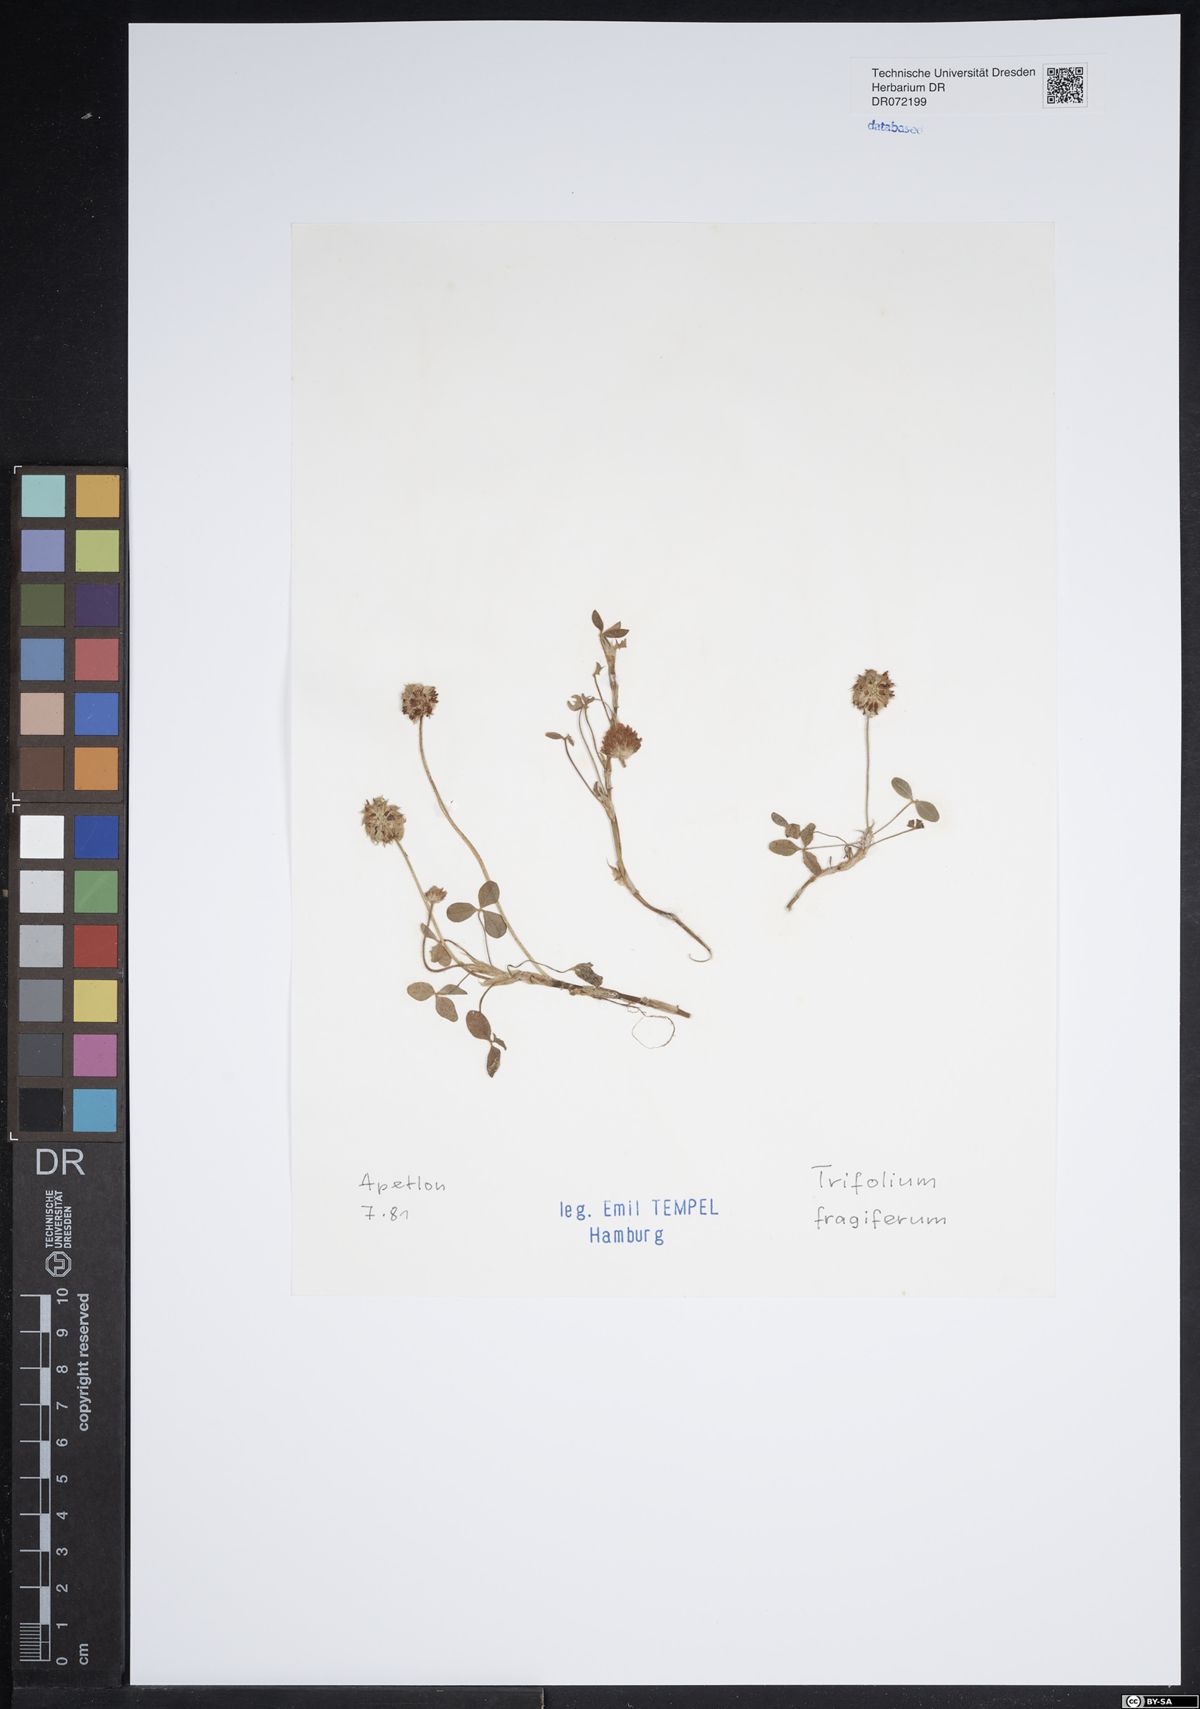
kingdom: Plantae
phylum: Tracheophyta
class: Magnoliopsida
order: Fabales
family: Fabaceae
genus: Trifolium
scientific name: Trifolium fragiferum
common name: Strawberry clover
